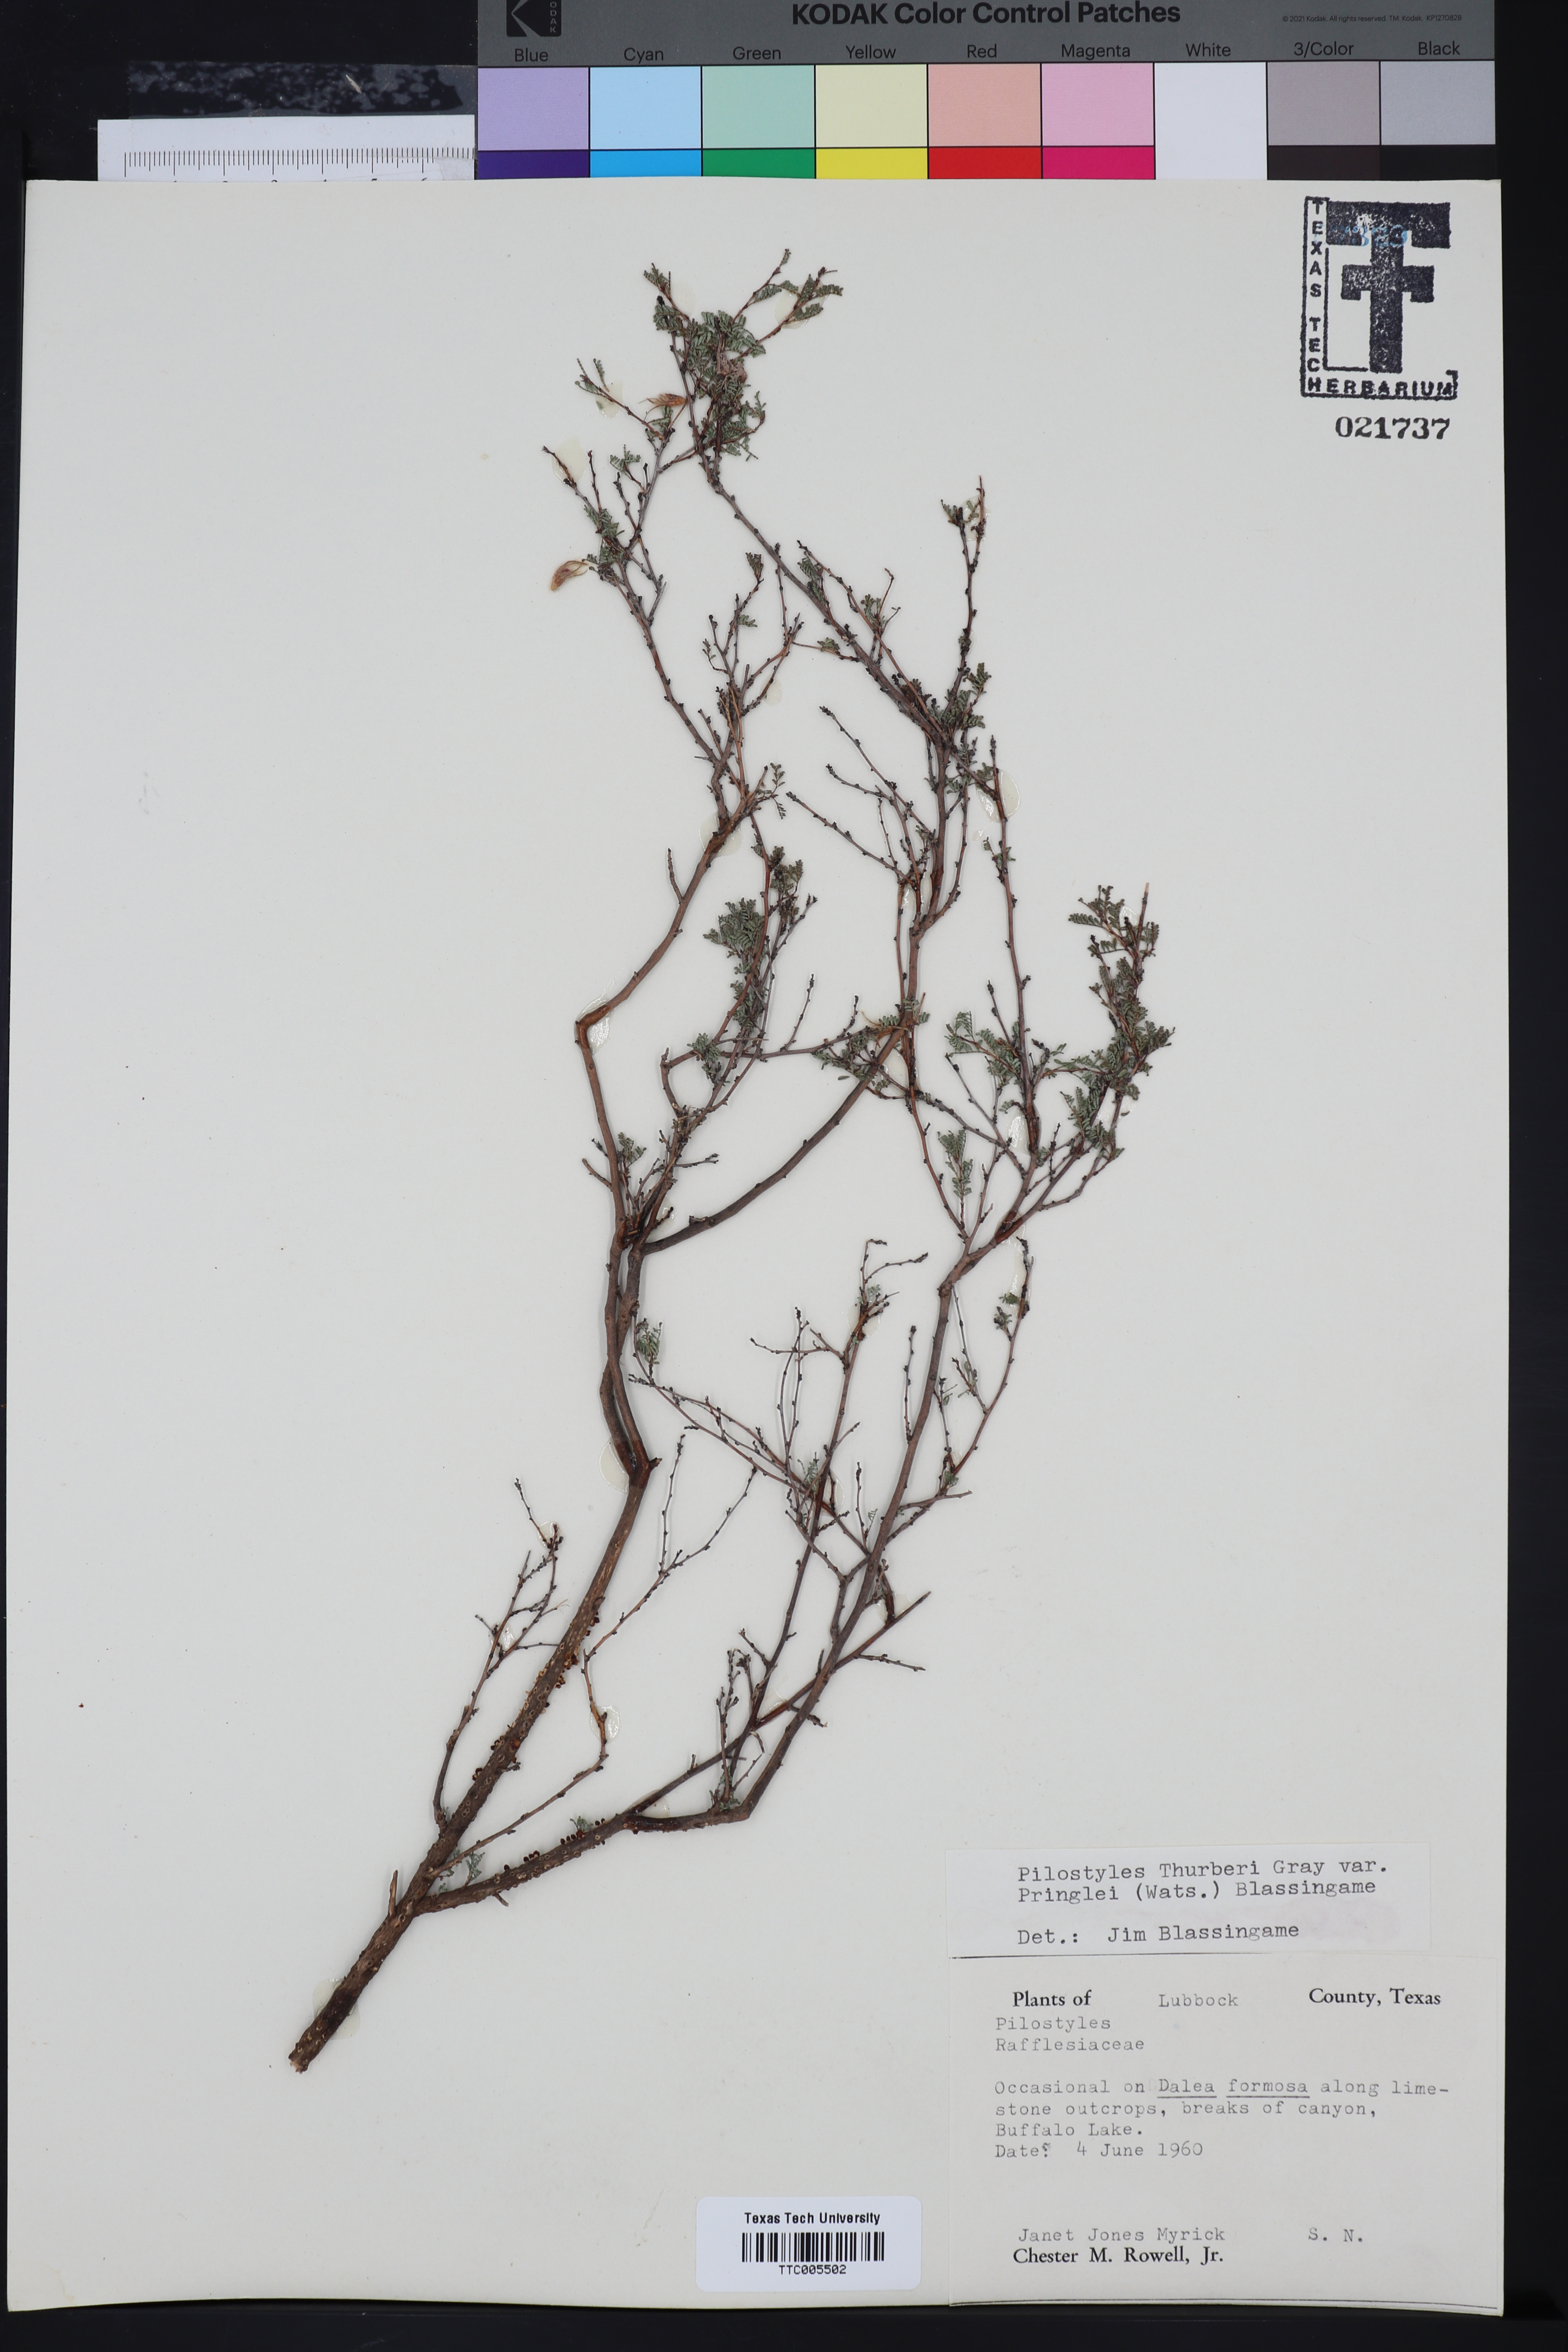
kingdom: Plantae
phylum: Tracheophyta
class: Magnoliopsida
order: Cucurbitales
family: Apodanthaceae
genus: Pilostyles
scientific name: Pilostyles
